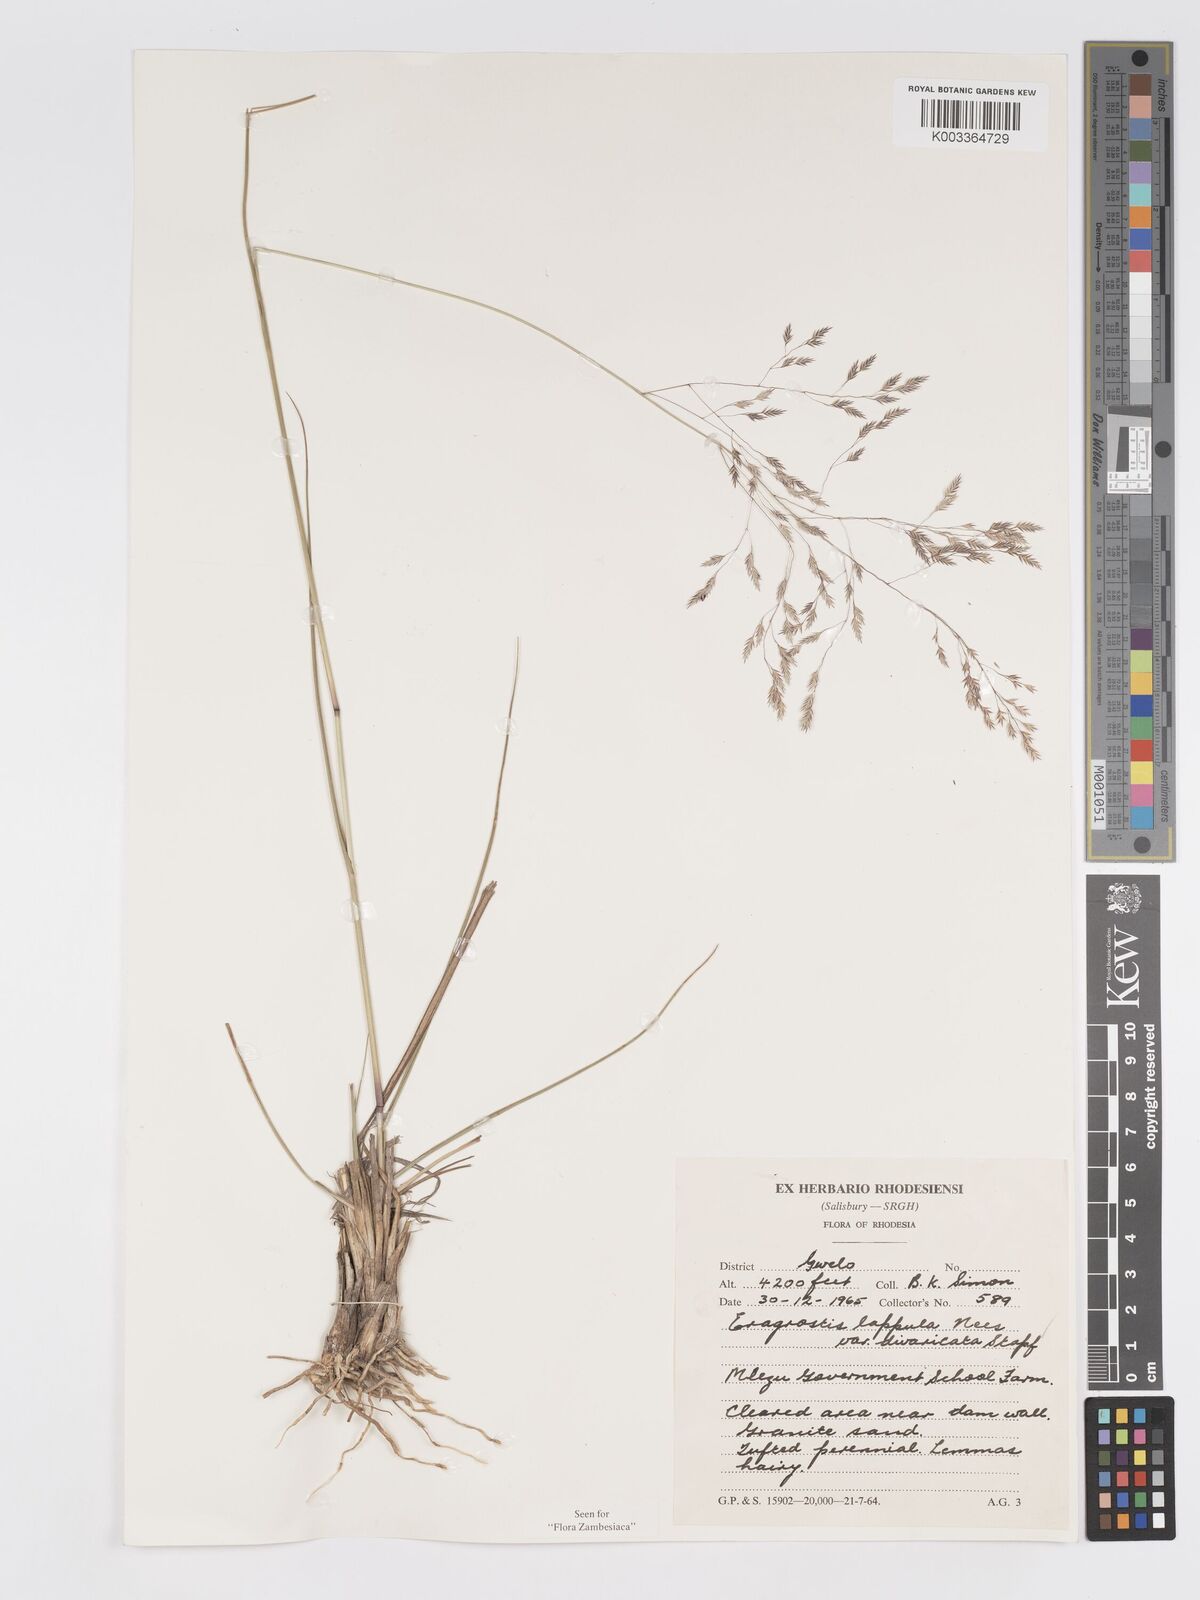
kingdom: Plantae
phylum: Tracheophyta
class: Liliopsida
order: Poales
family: Poaceae
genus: Eragrostis
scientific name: Eragrostis lappula
